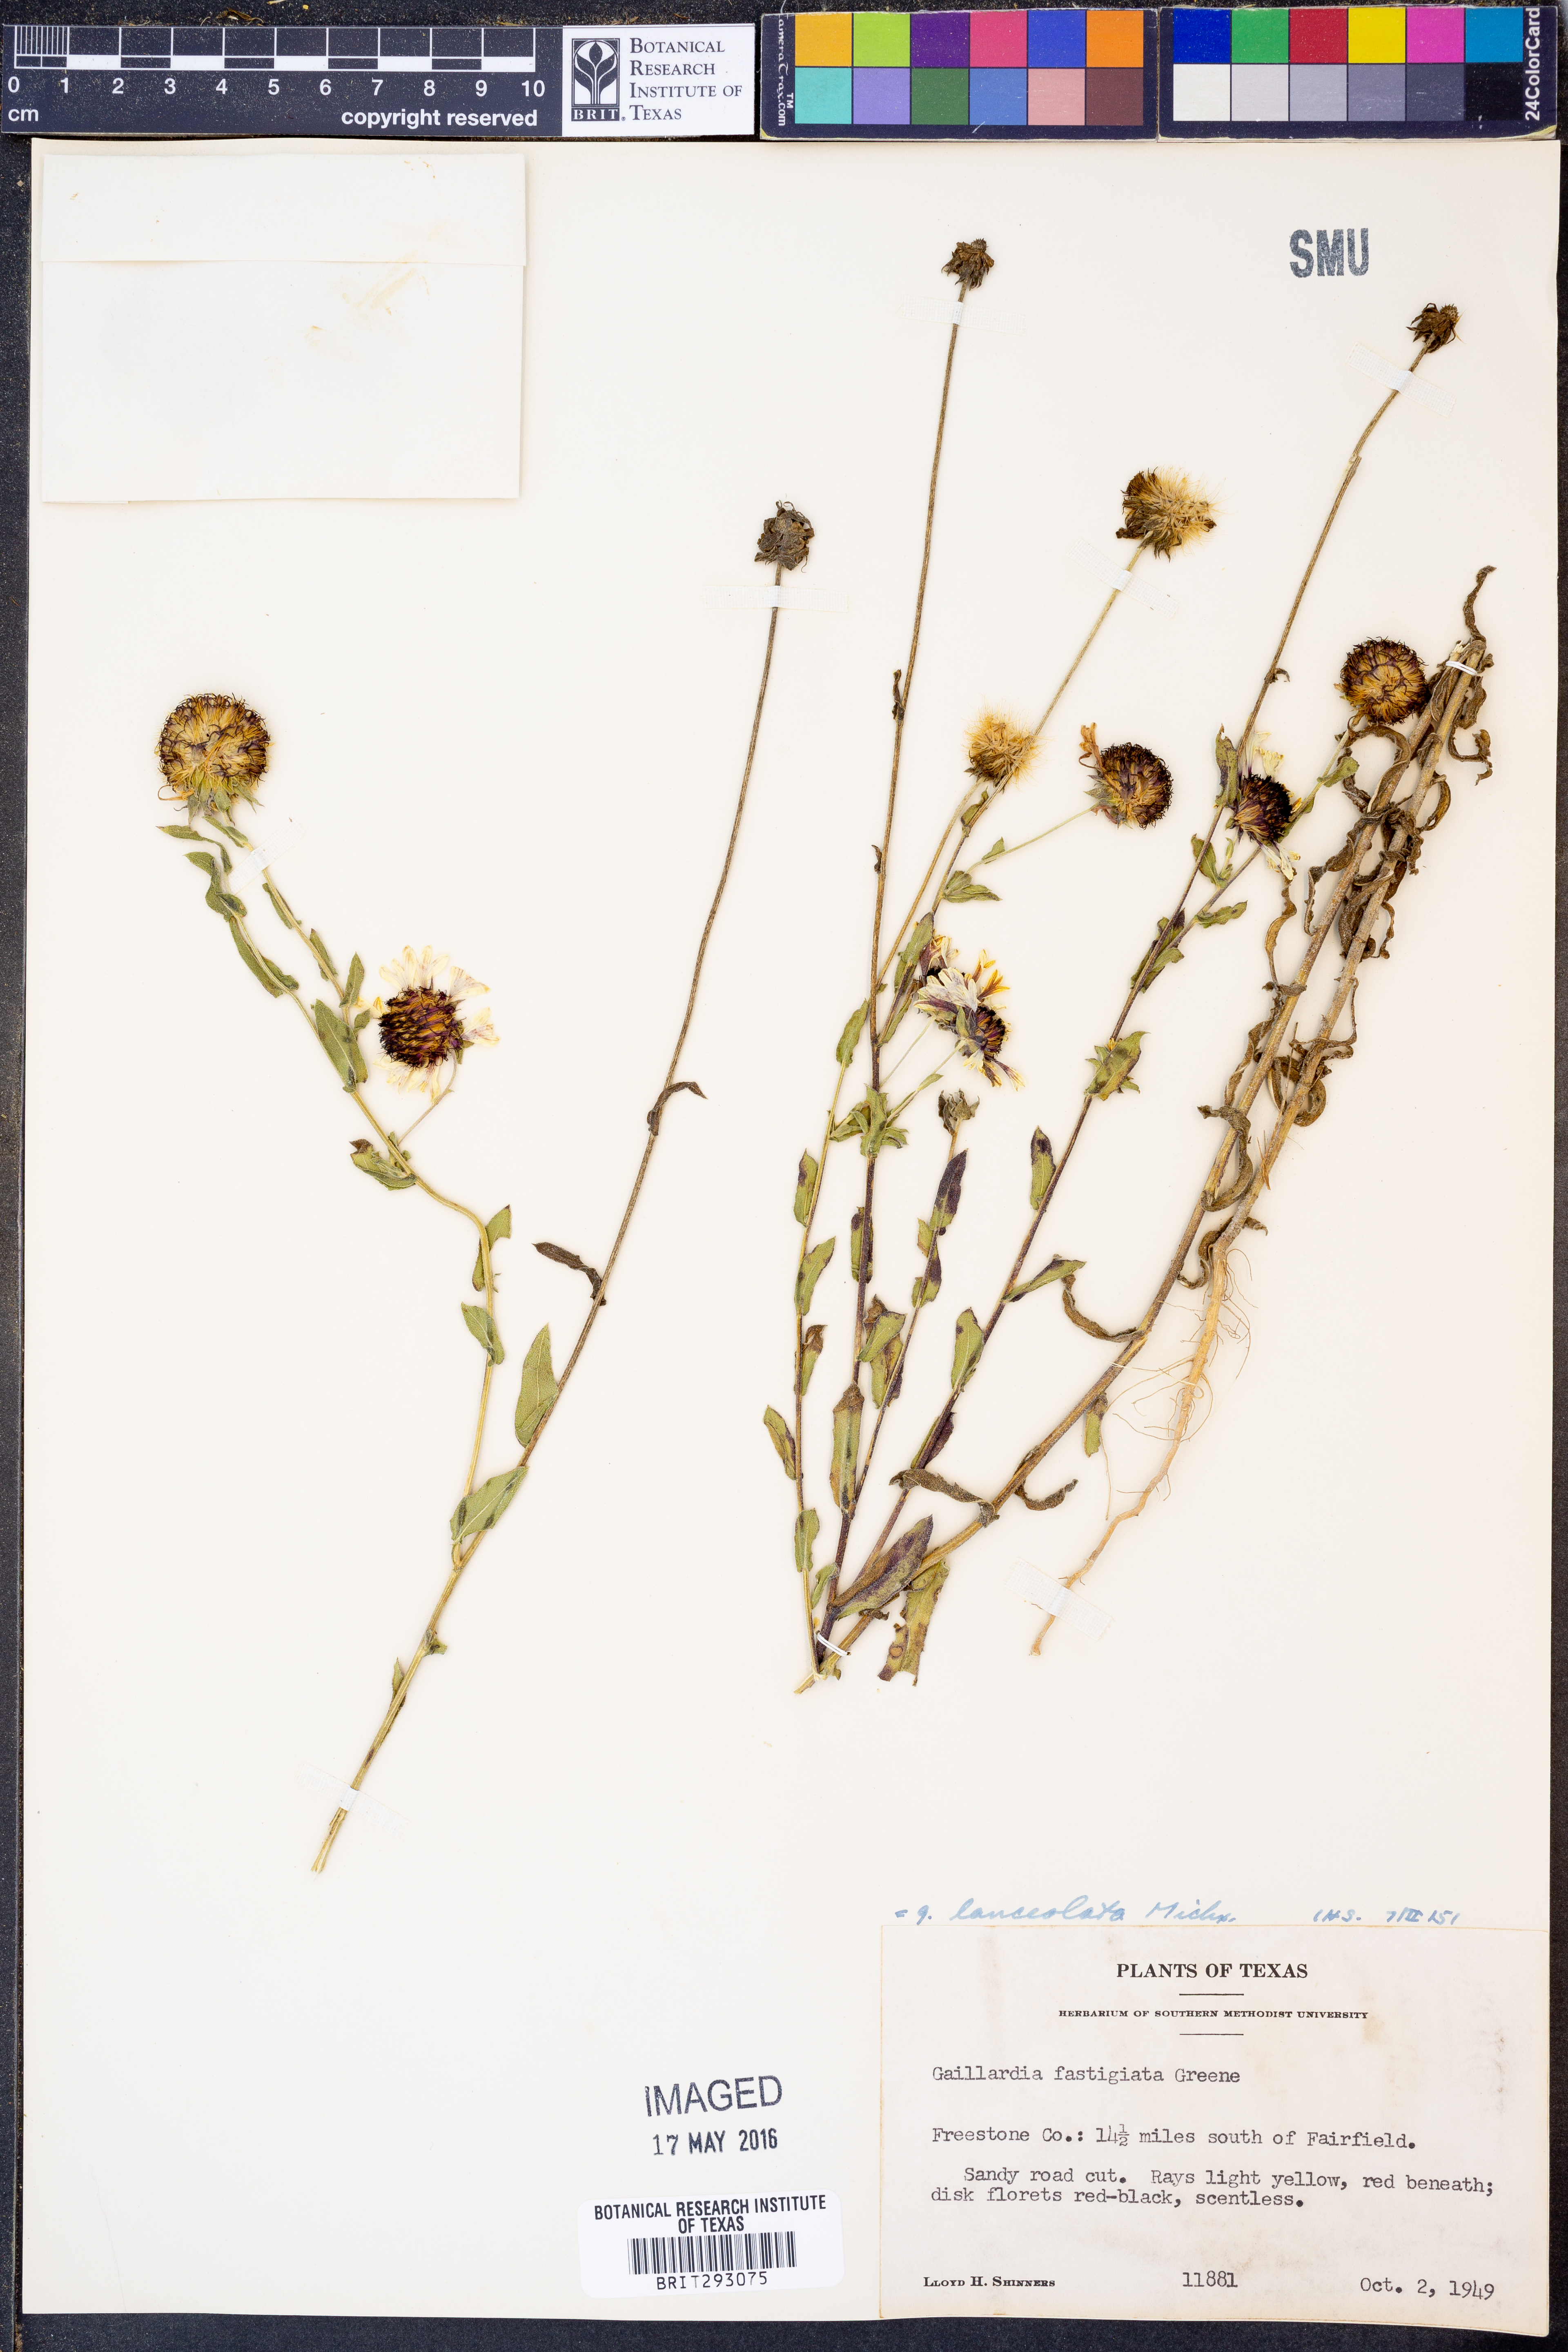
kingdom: Plantae
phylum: Tracheophyta
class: Magnoliopsida
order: Asterales
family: Asteraceae
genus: Gaillardia
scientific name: Gaillardia aestivalis
